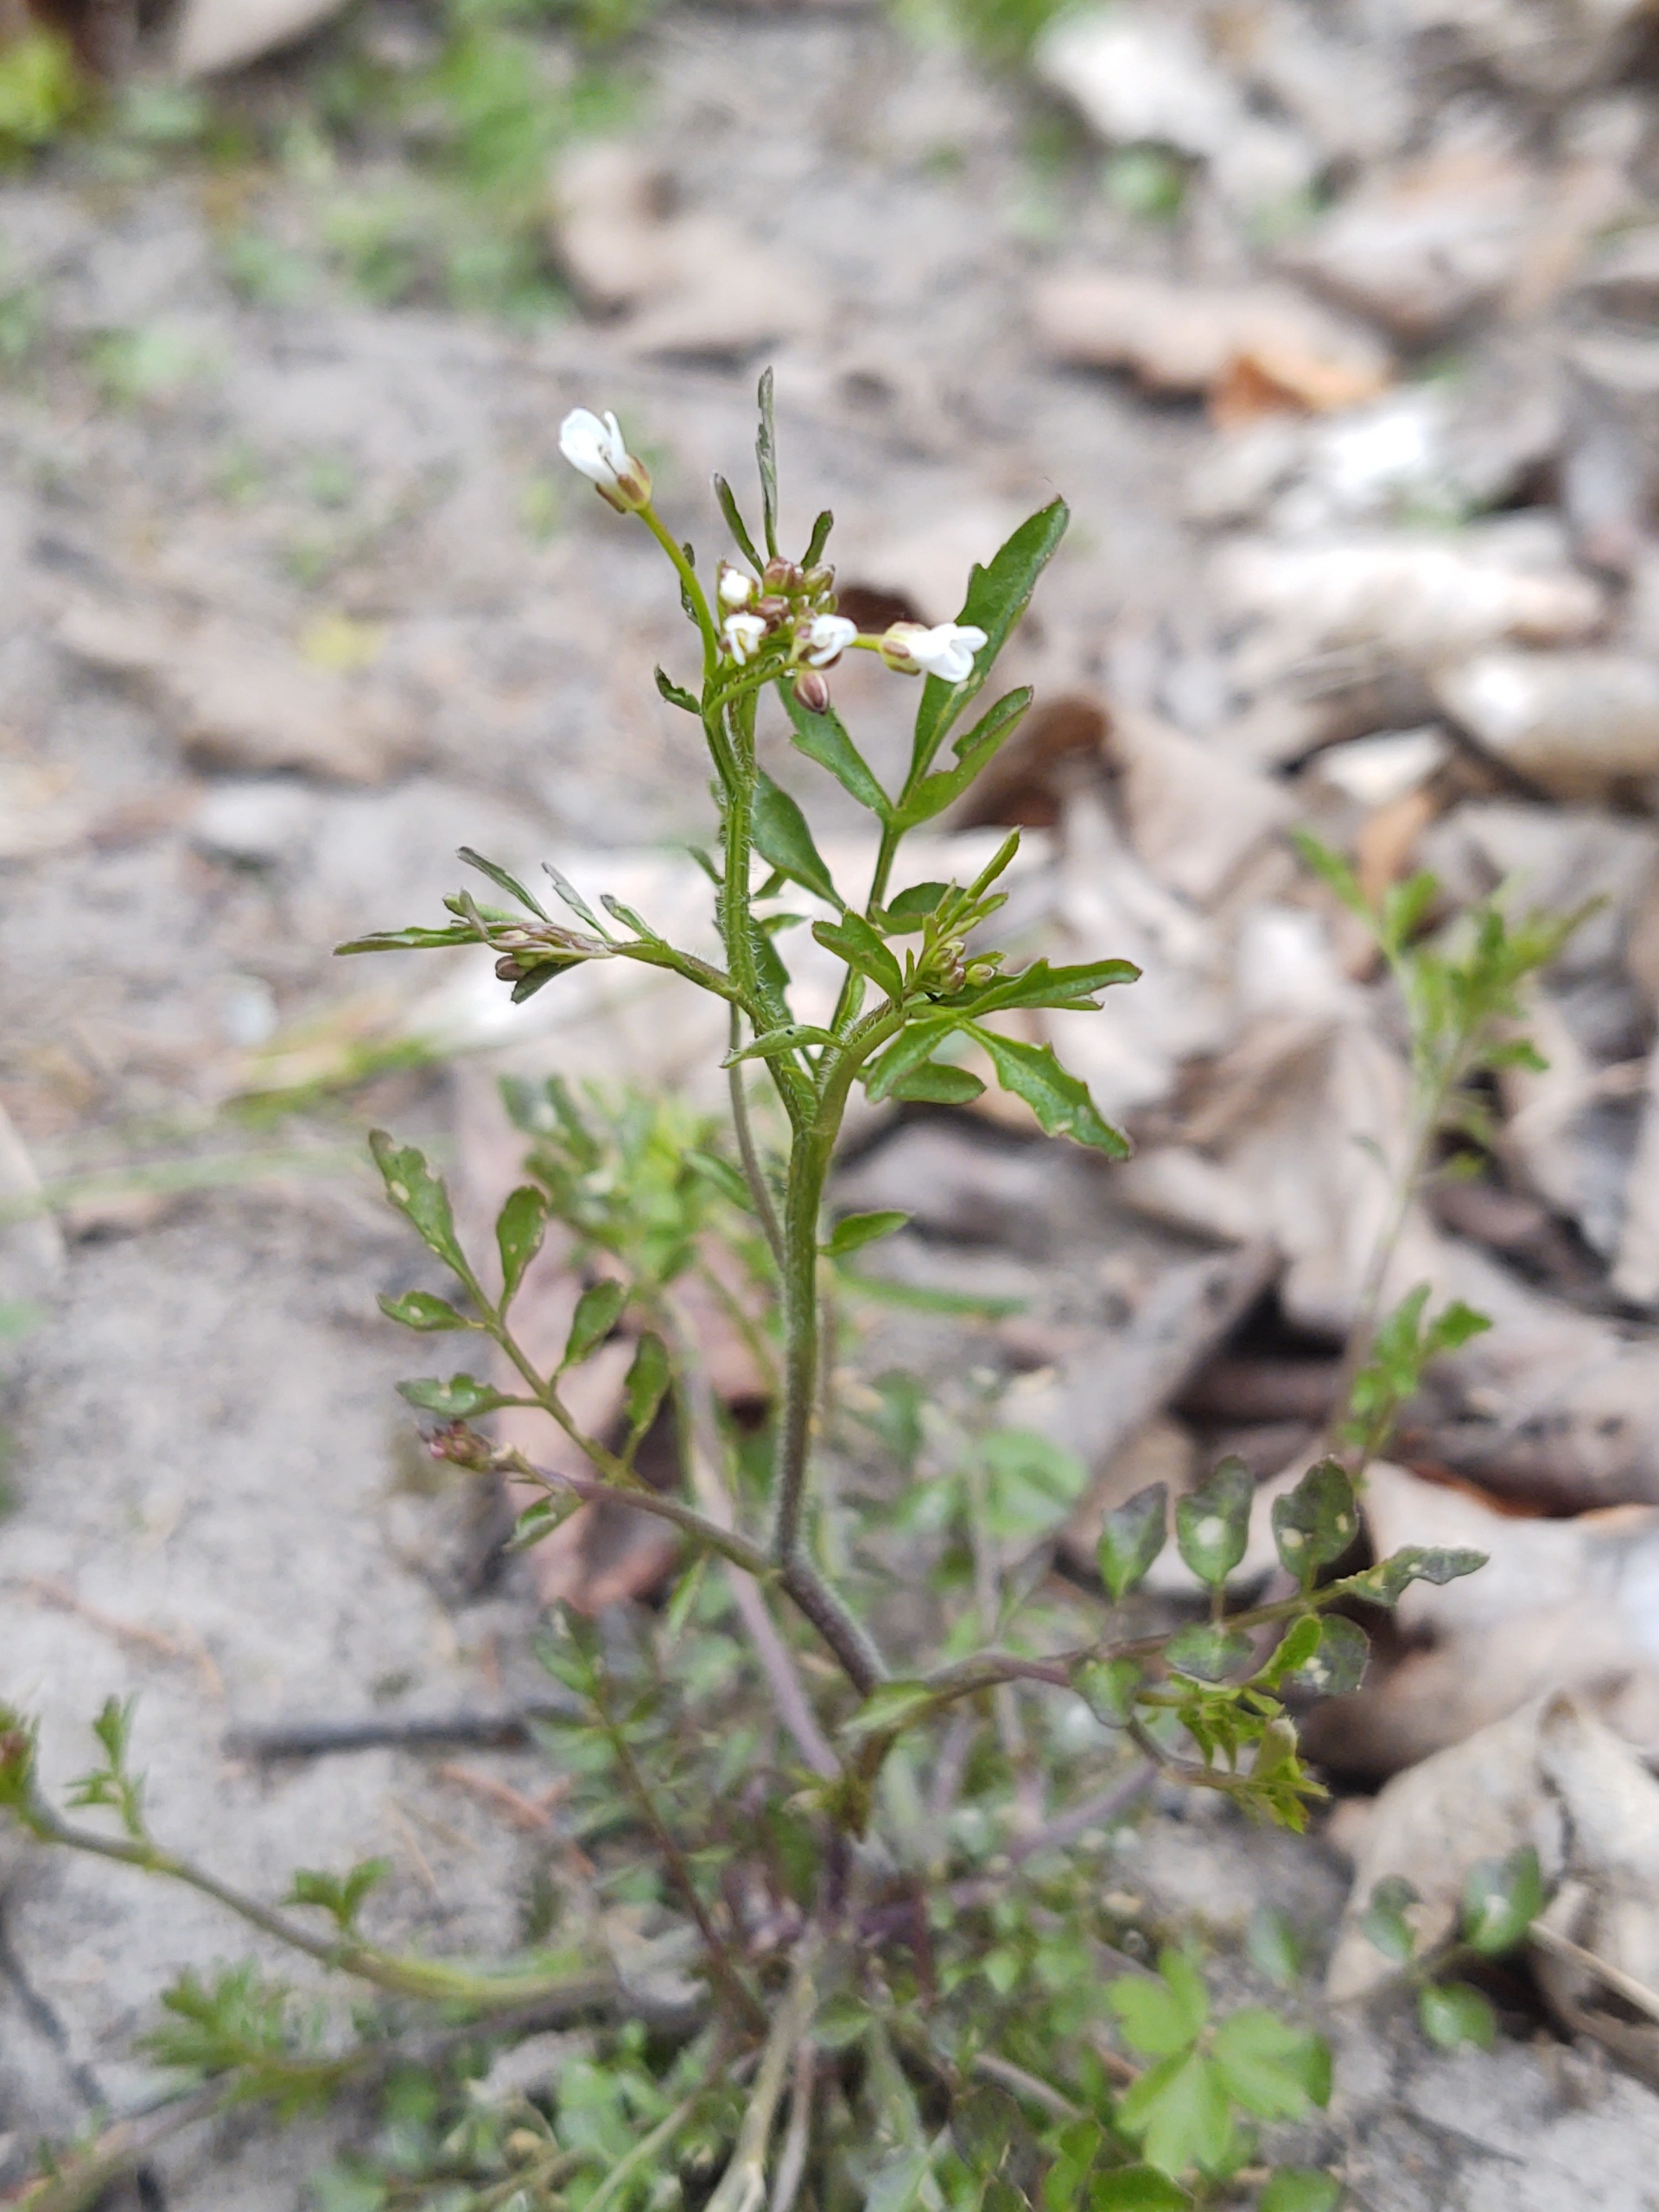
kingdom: Plantae
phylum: Tracheophyta
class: Magnoliopsida
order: Brassicales
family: Brassicaceae
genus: Cardamine
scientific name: Cardamine flexuosa
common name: Skov-springklap
